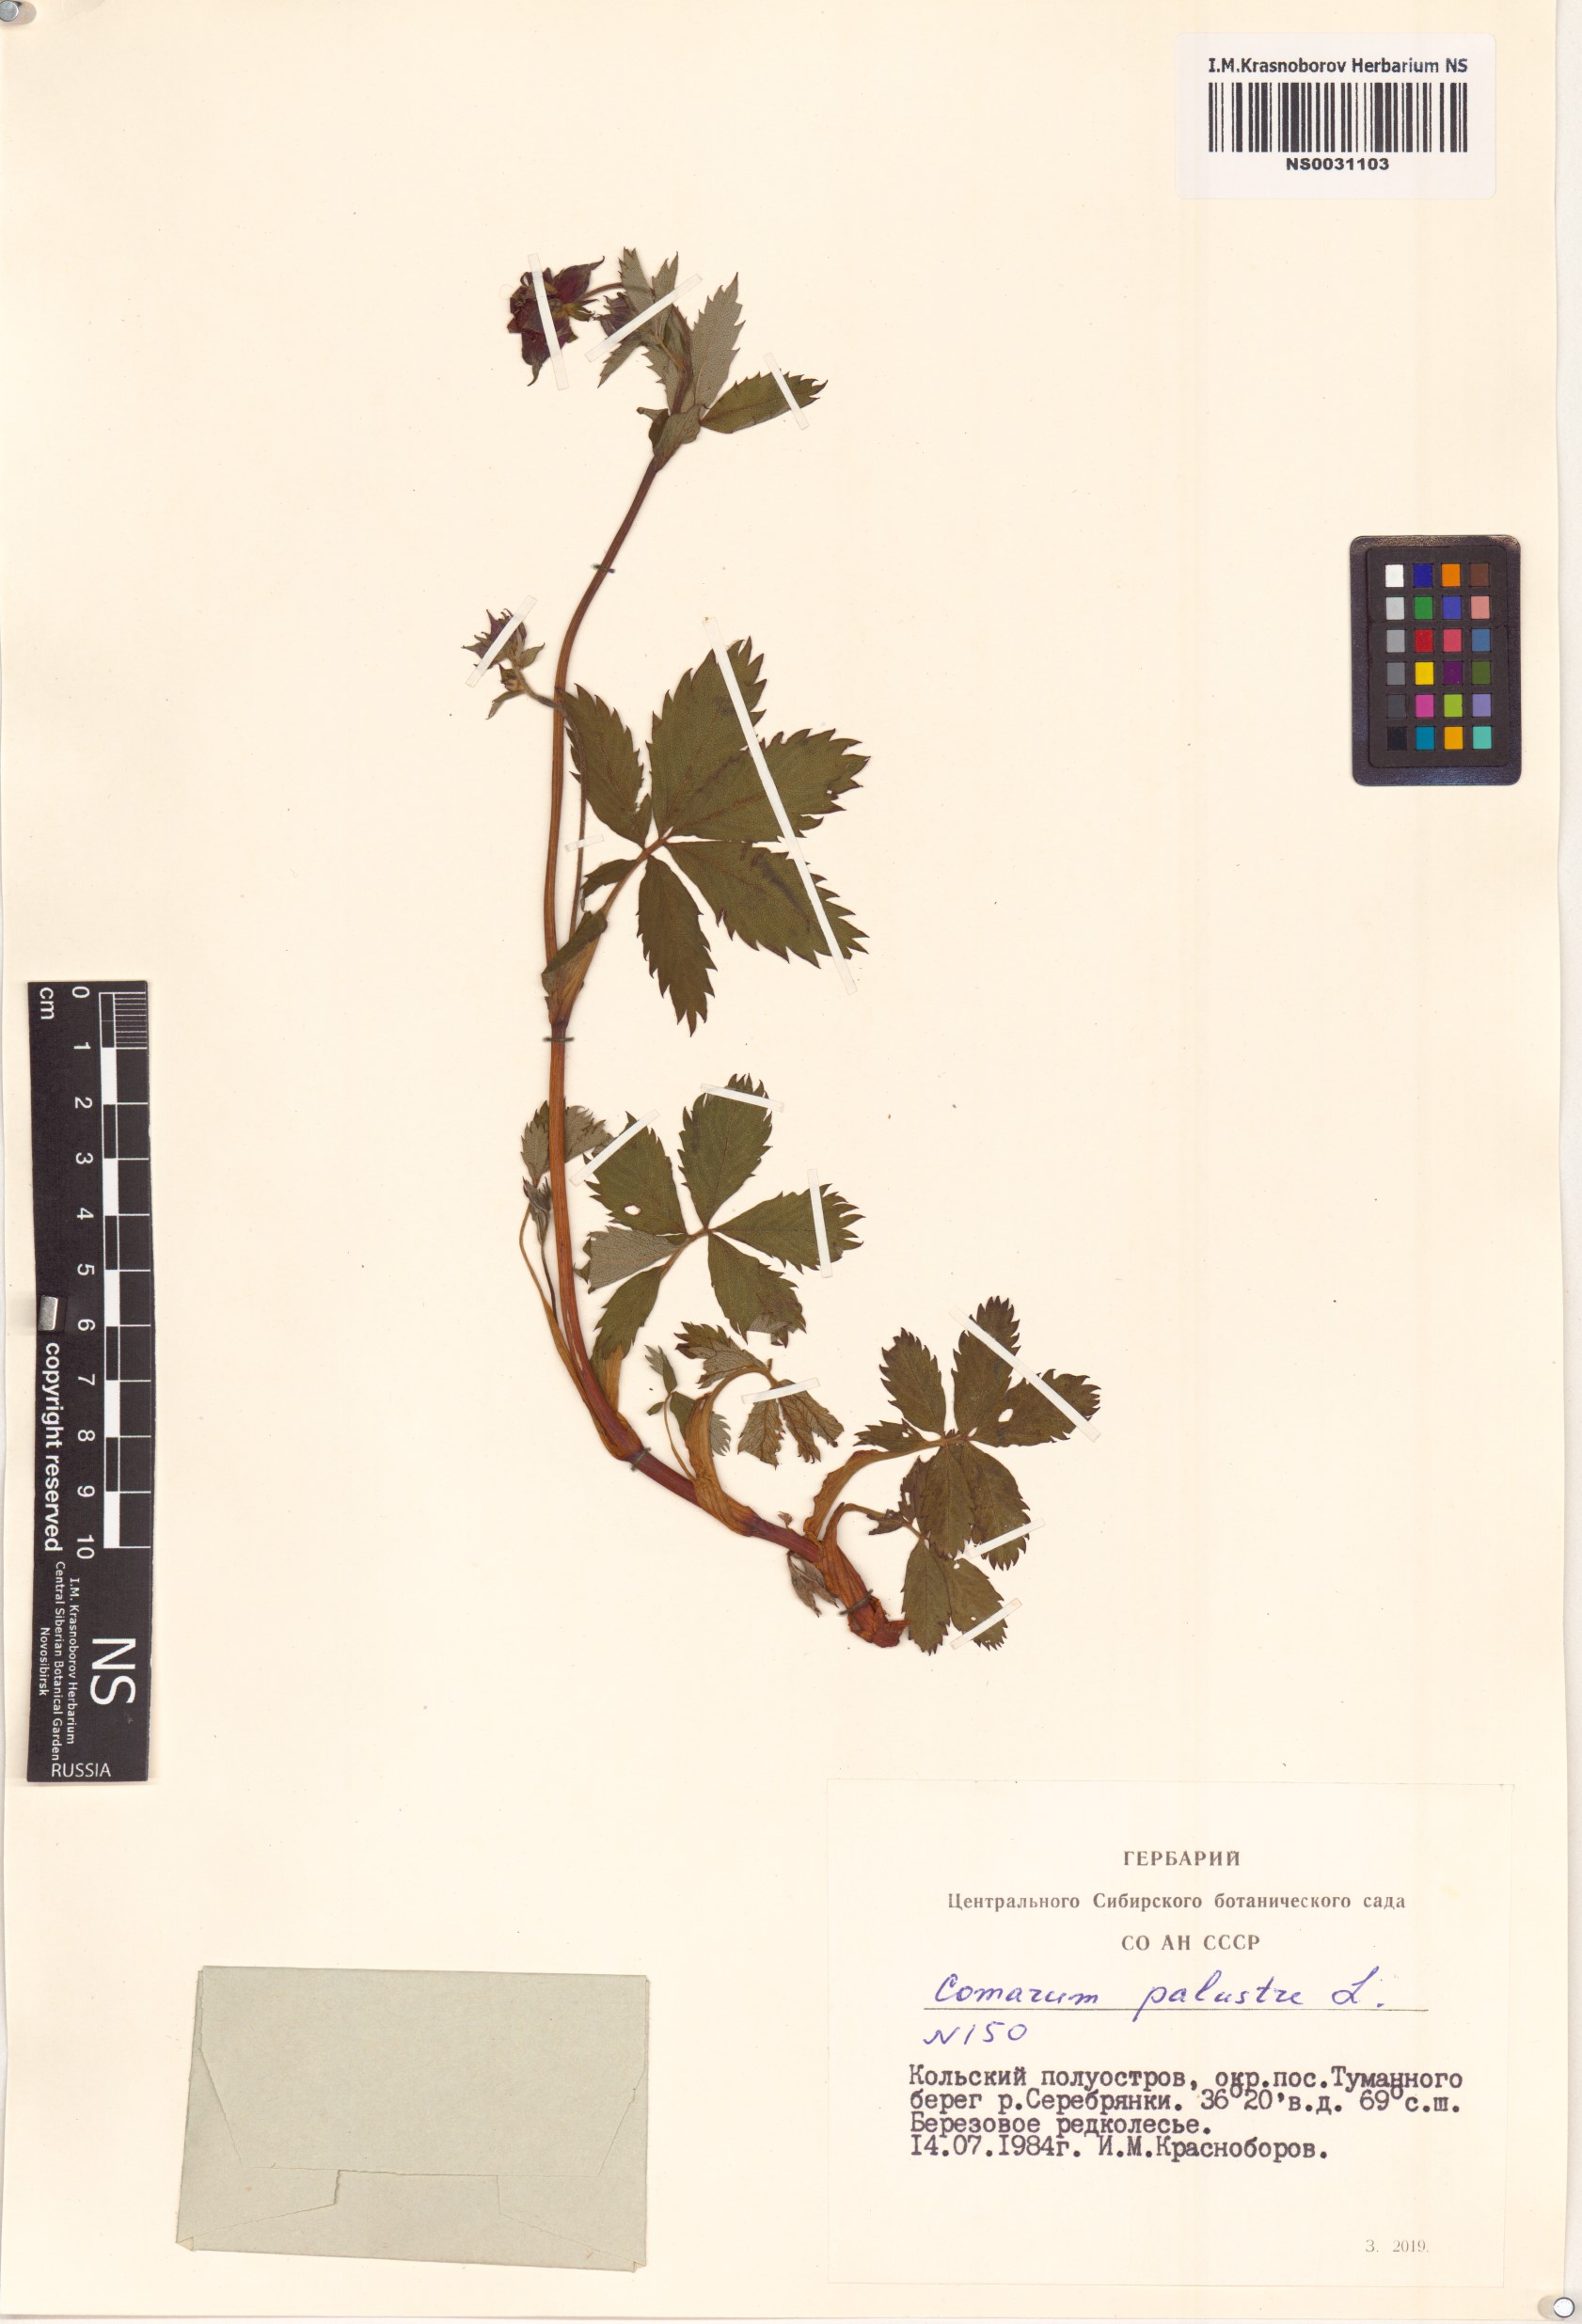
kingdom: Plantae
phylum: Tracheophyta
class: Magnoliopsida
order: Rosales
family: Rosaceae
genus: Comarum
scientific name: Comarum palustre
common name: Marsh cinquefoil
